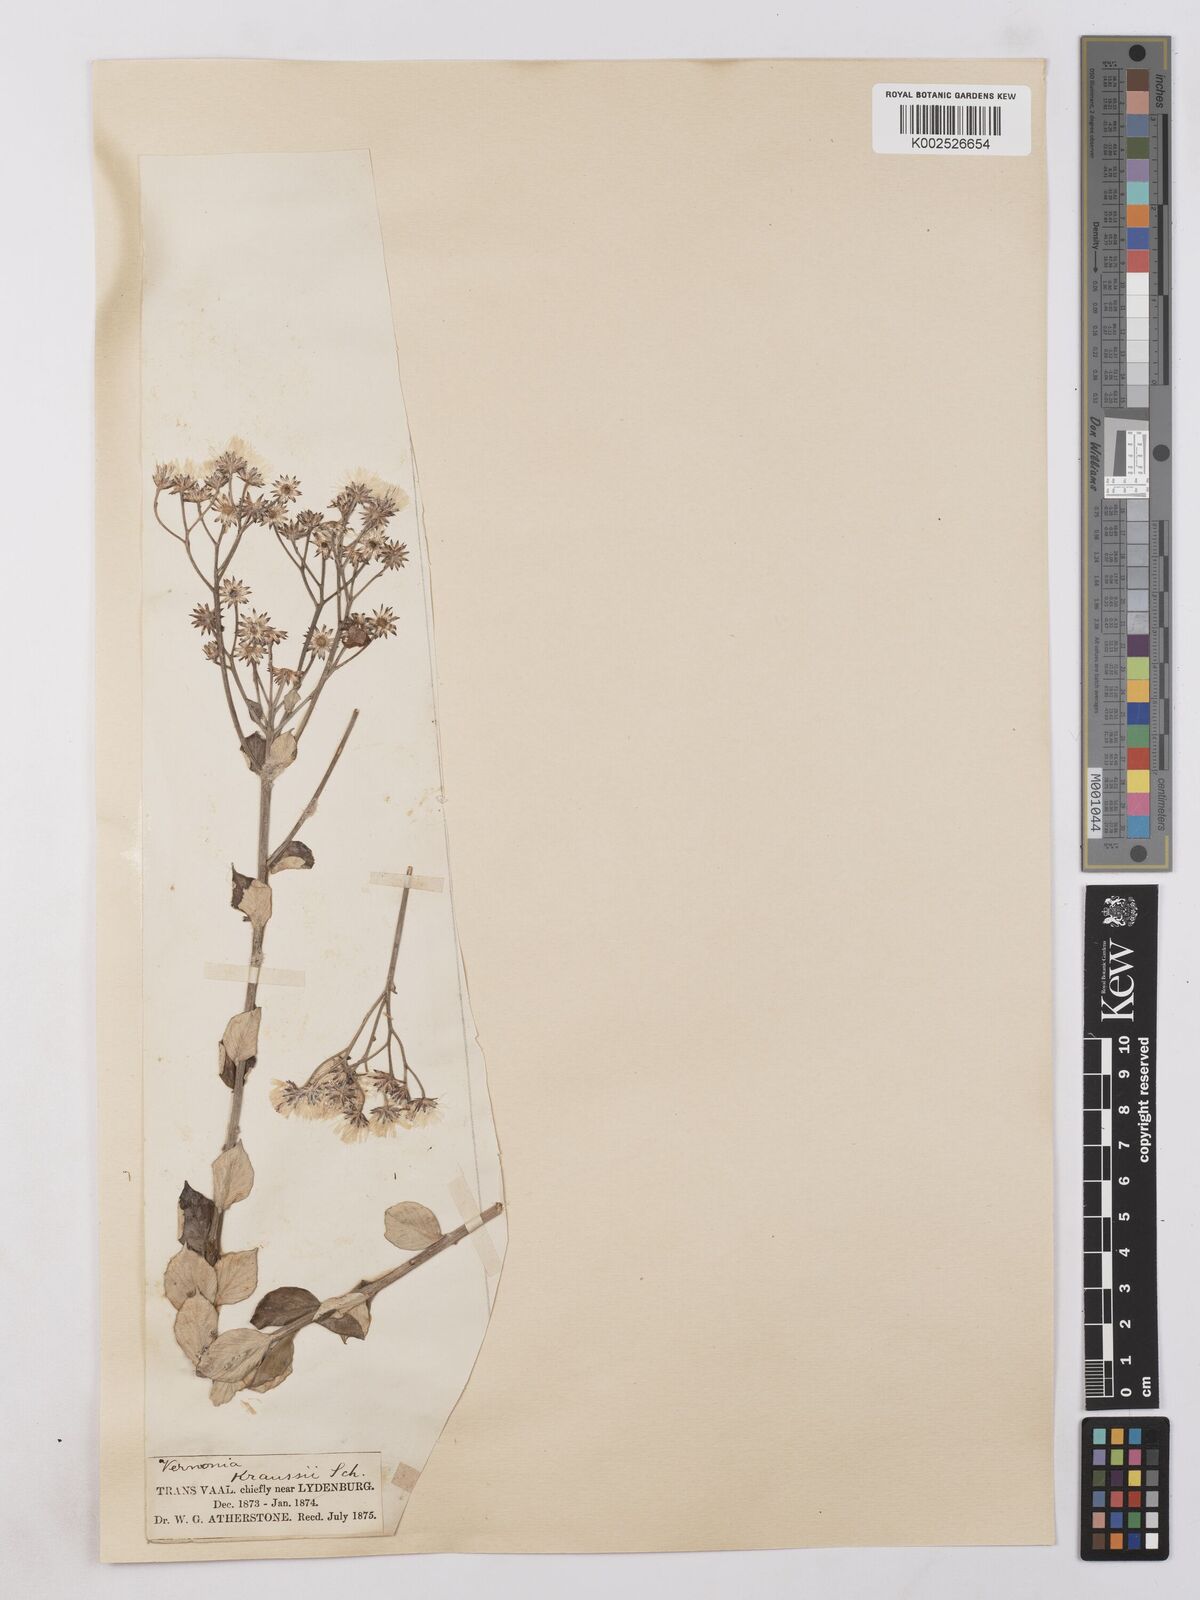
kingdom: Plantae
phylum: Tracheophyta
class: Magnoliopsida
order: Asterales
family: Asteraceae
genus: Hilliardiella
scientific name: Hilliardiella oligocephala
